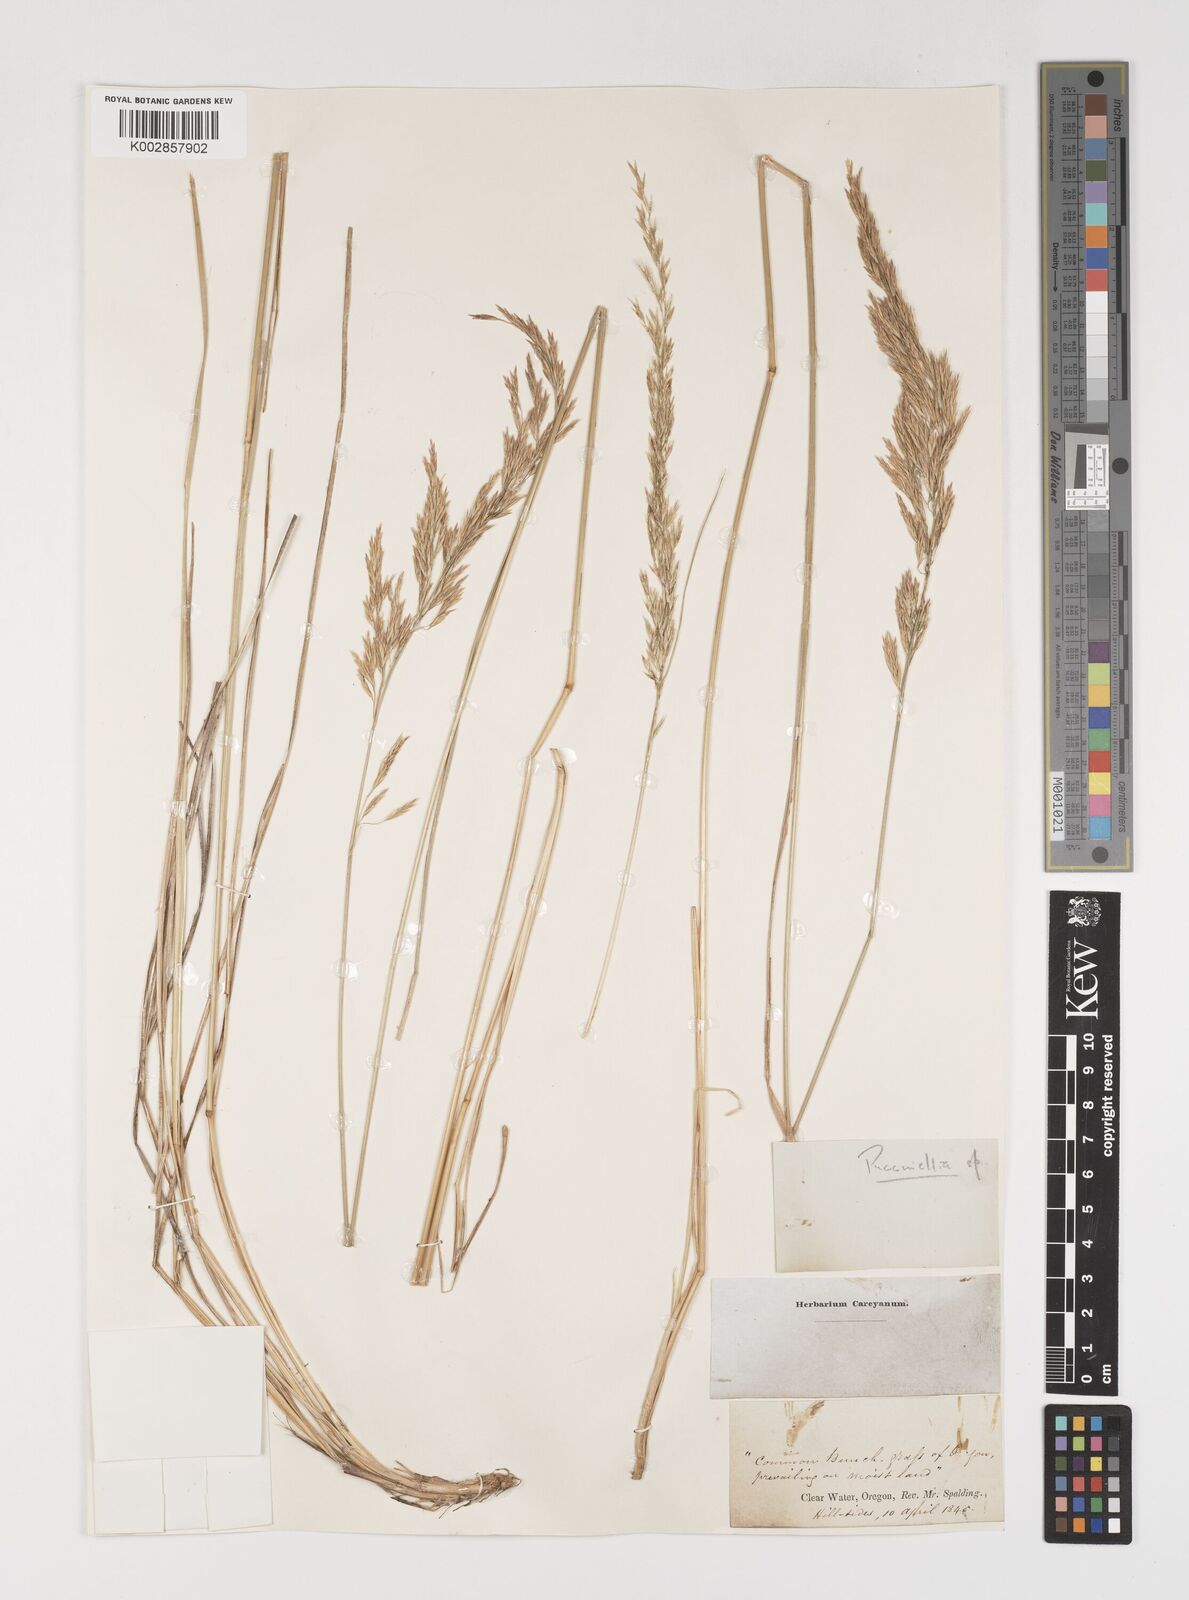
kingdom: Plantae
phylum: Tracheophyta
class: Liliopsida
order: Poales
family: Poaceae
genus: Puccinellia
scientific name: Puccinellia
